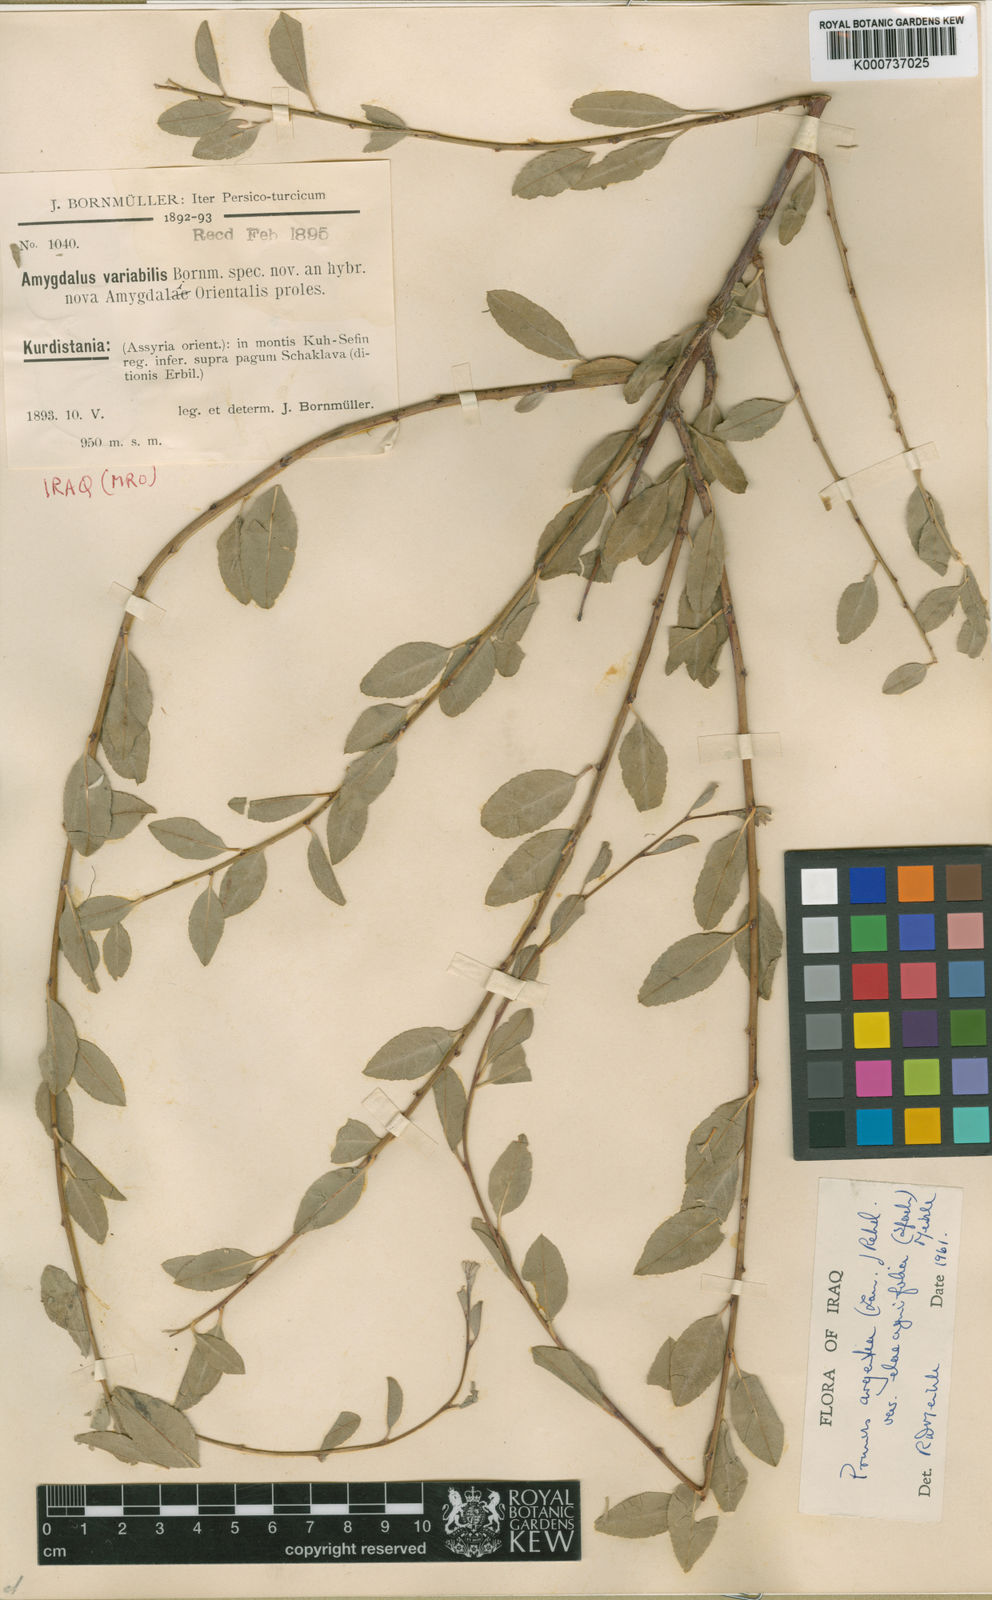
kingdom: Plantae
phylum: Tracheophyta
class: Magnoliopsida
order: Rosales
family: Rosaceae
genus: Prunus
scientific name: Prunus argentea
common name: Silver almond
